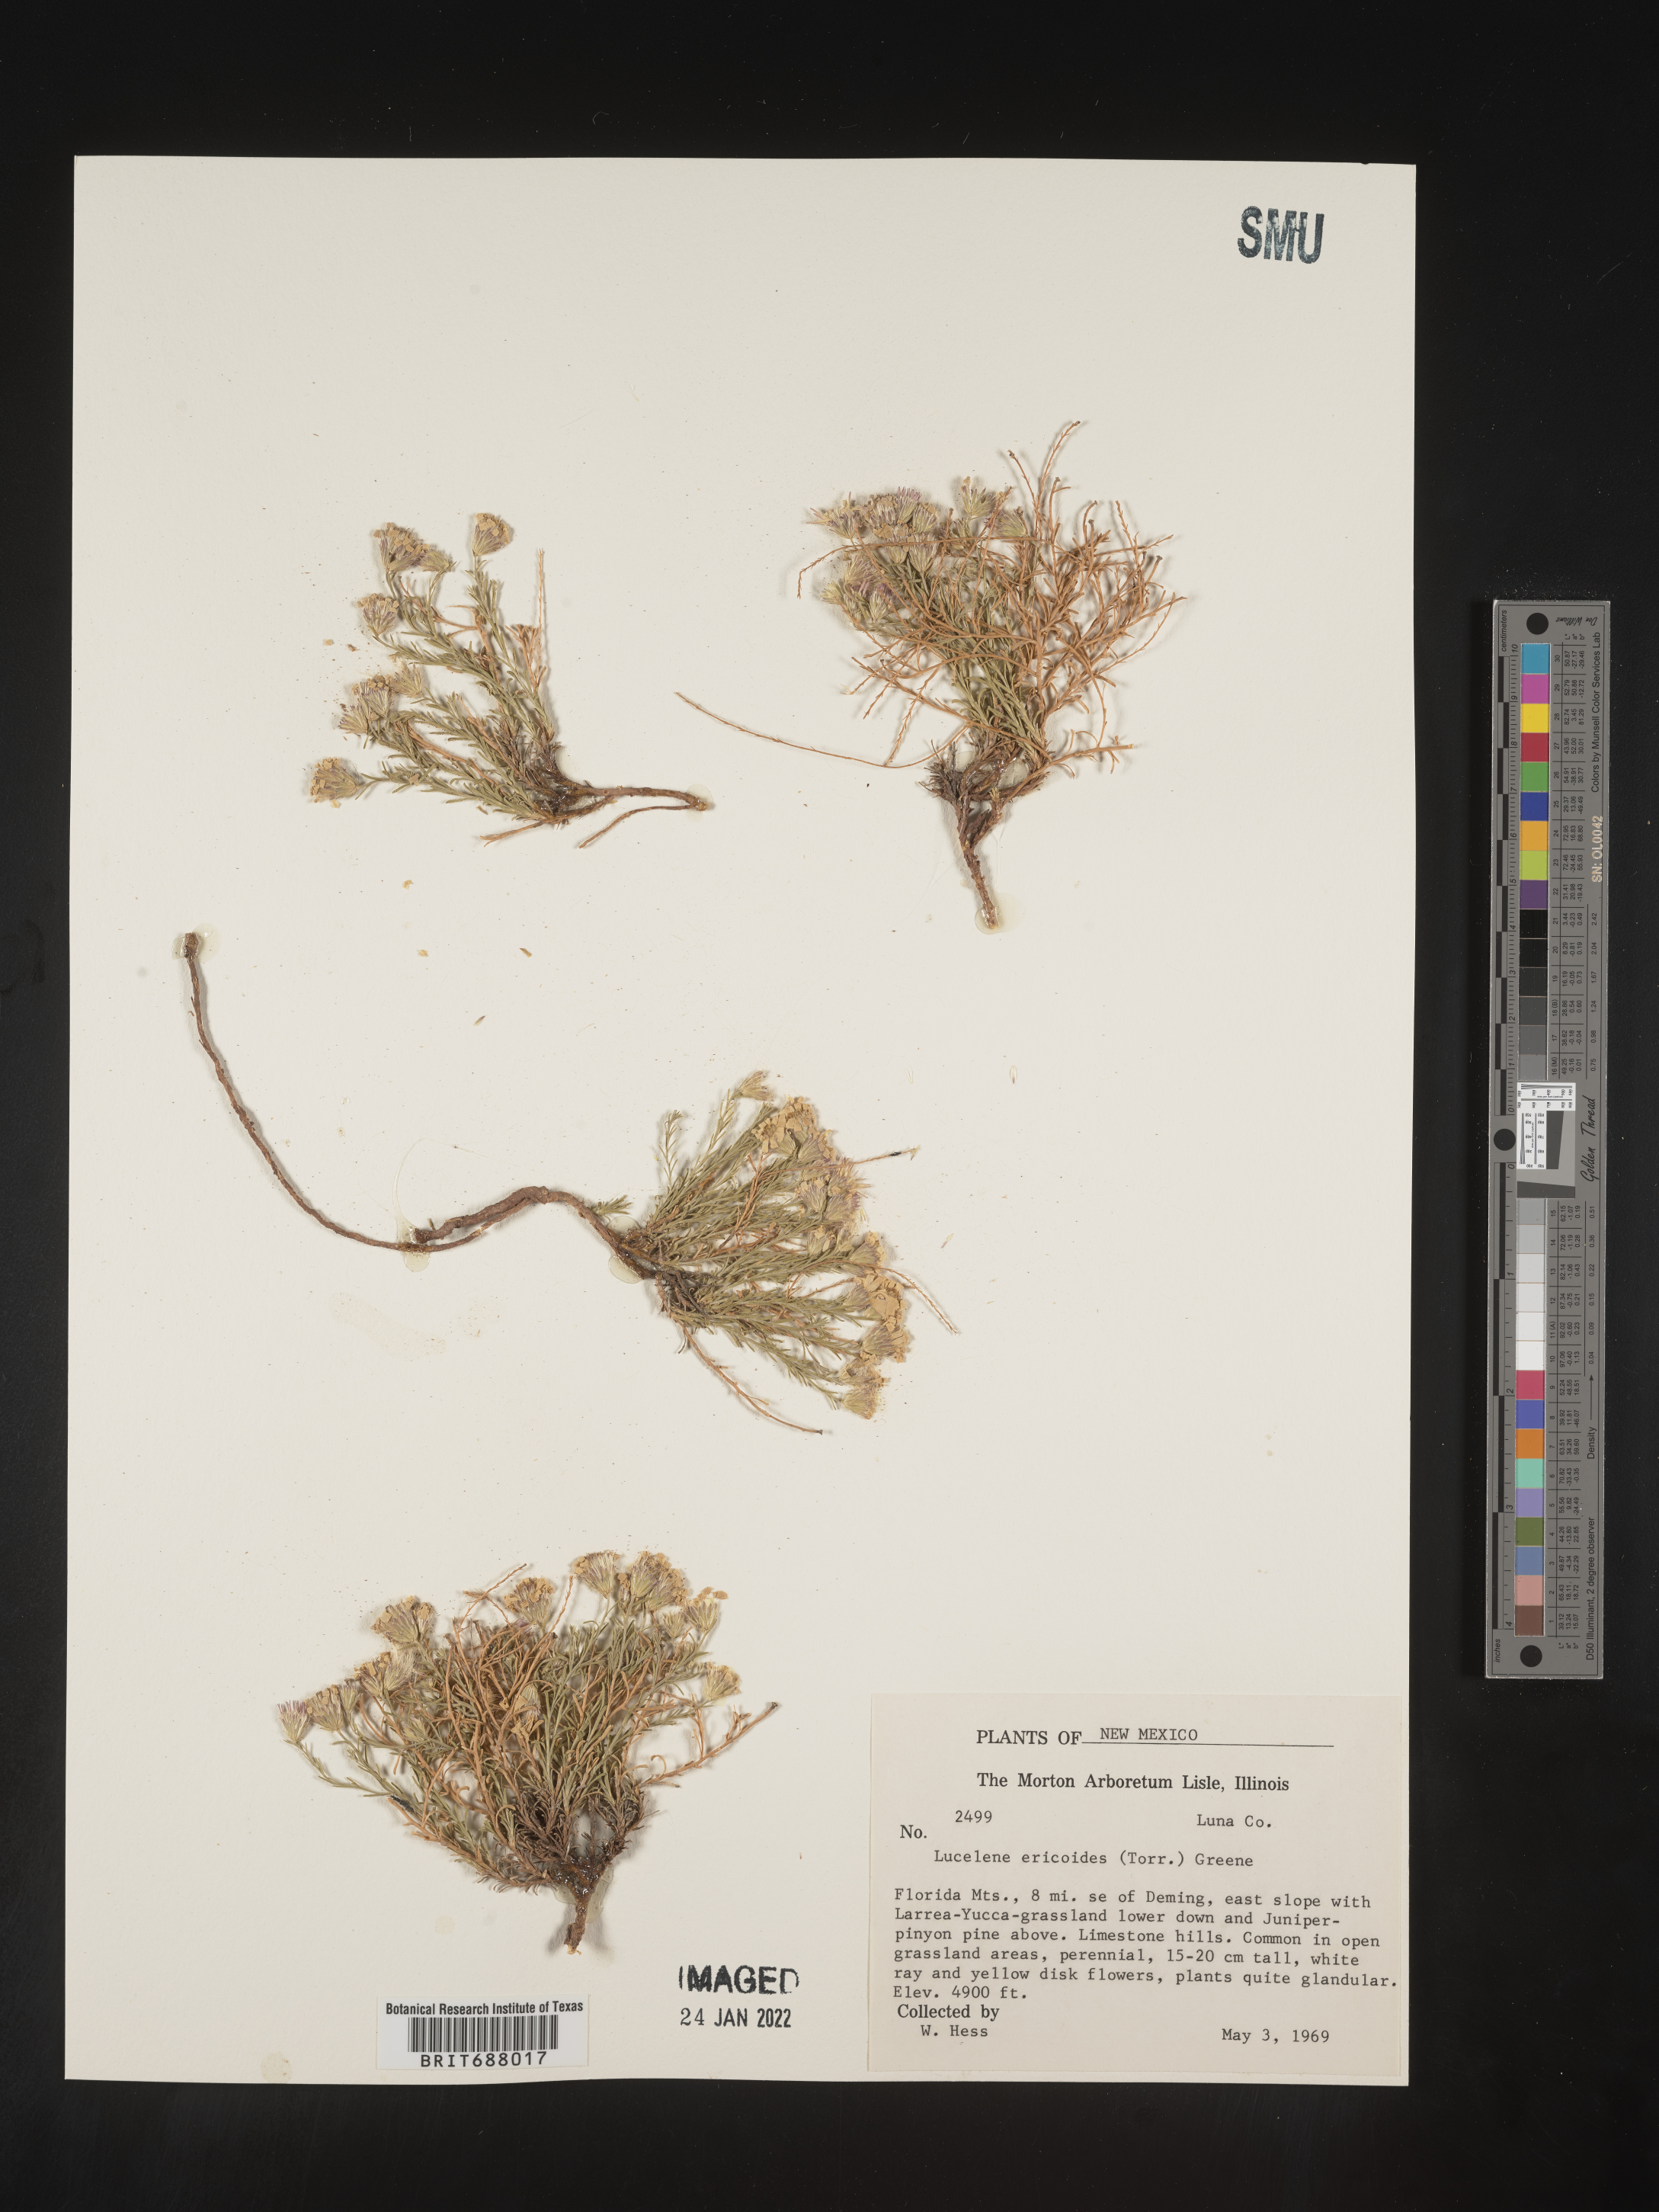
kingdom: Plantae
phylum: Tracheophyta
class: Magnoliopsida
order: Asterales
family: Asteraceae
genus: Chaetopappa
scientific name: Chaetopappa ericoides
